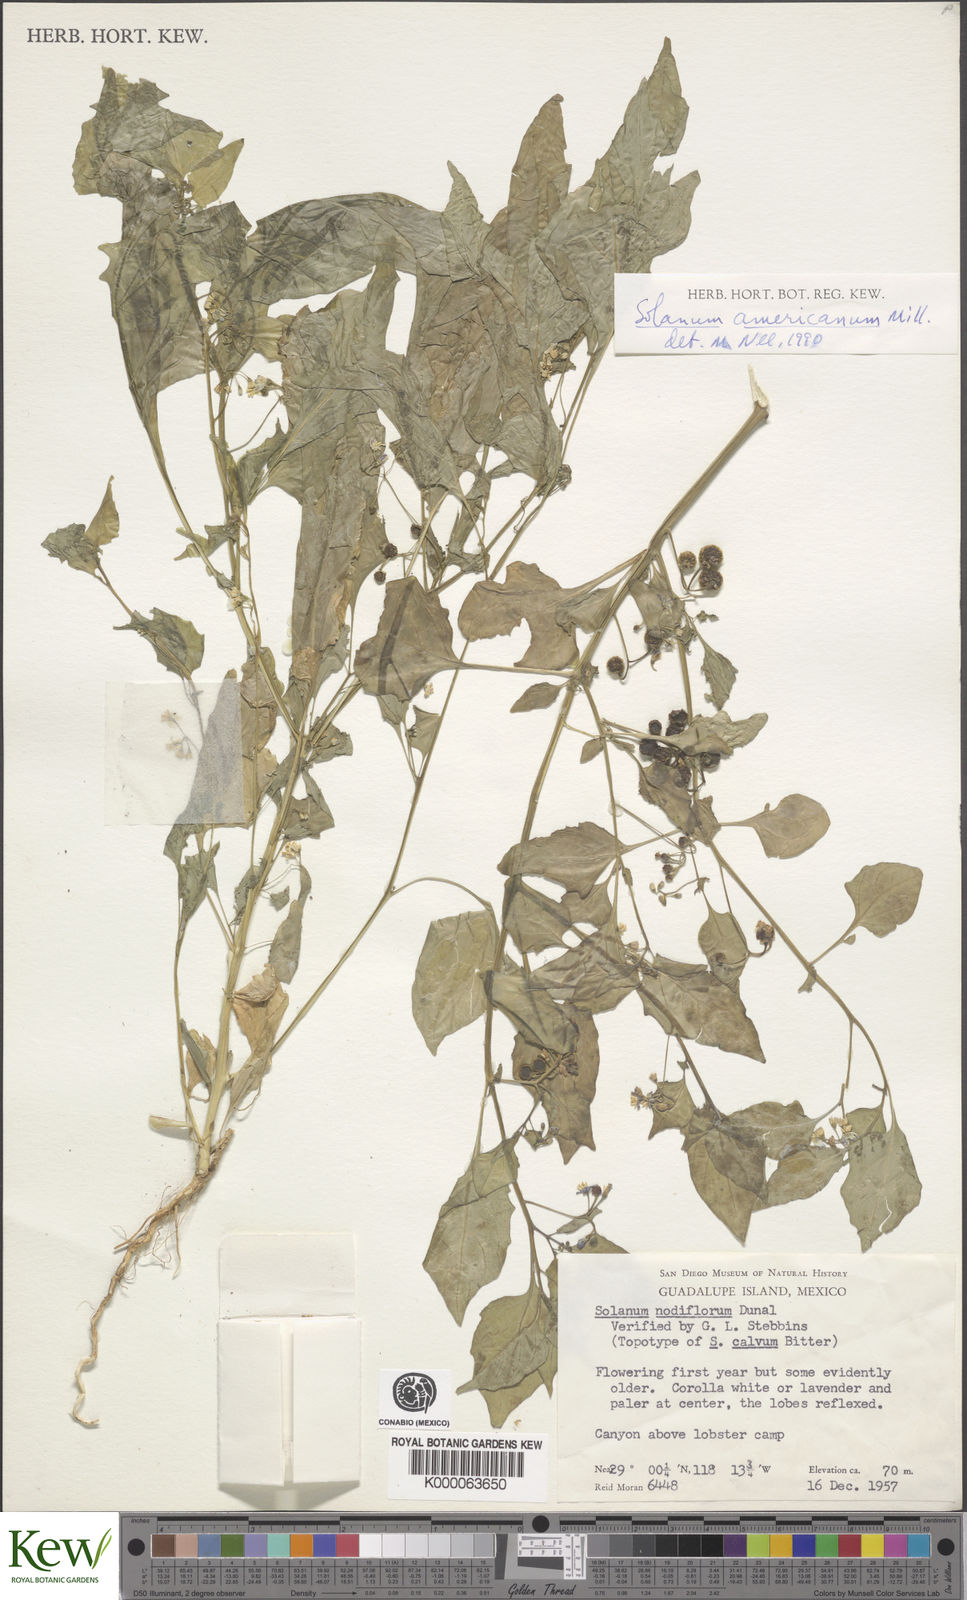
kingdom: Plantae
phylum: Tracheophyta
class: Magnoliopsida
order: Solanales
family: Solanaceae
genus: Solanum
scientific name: Solanum americanum
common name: American black nightshade
